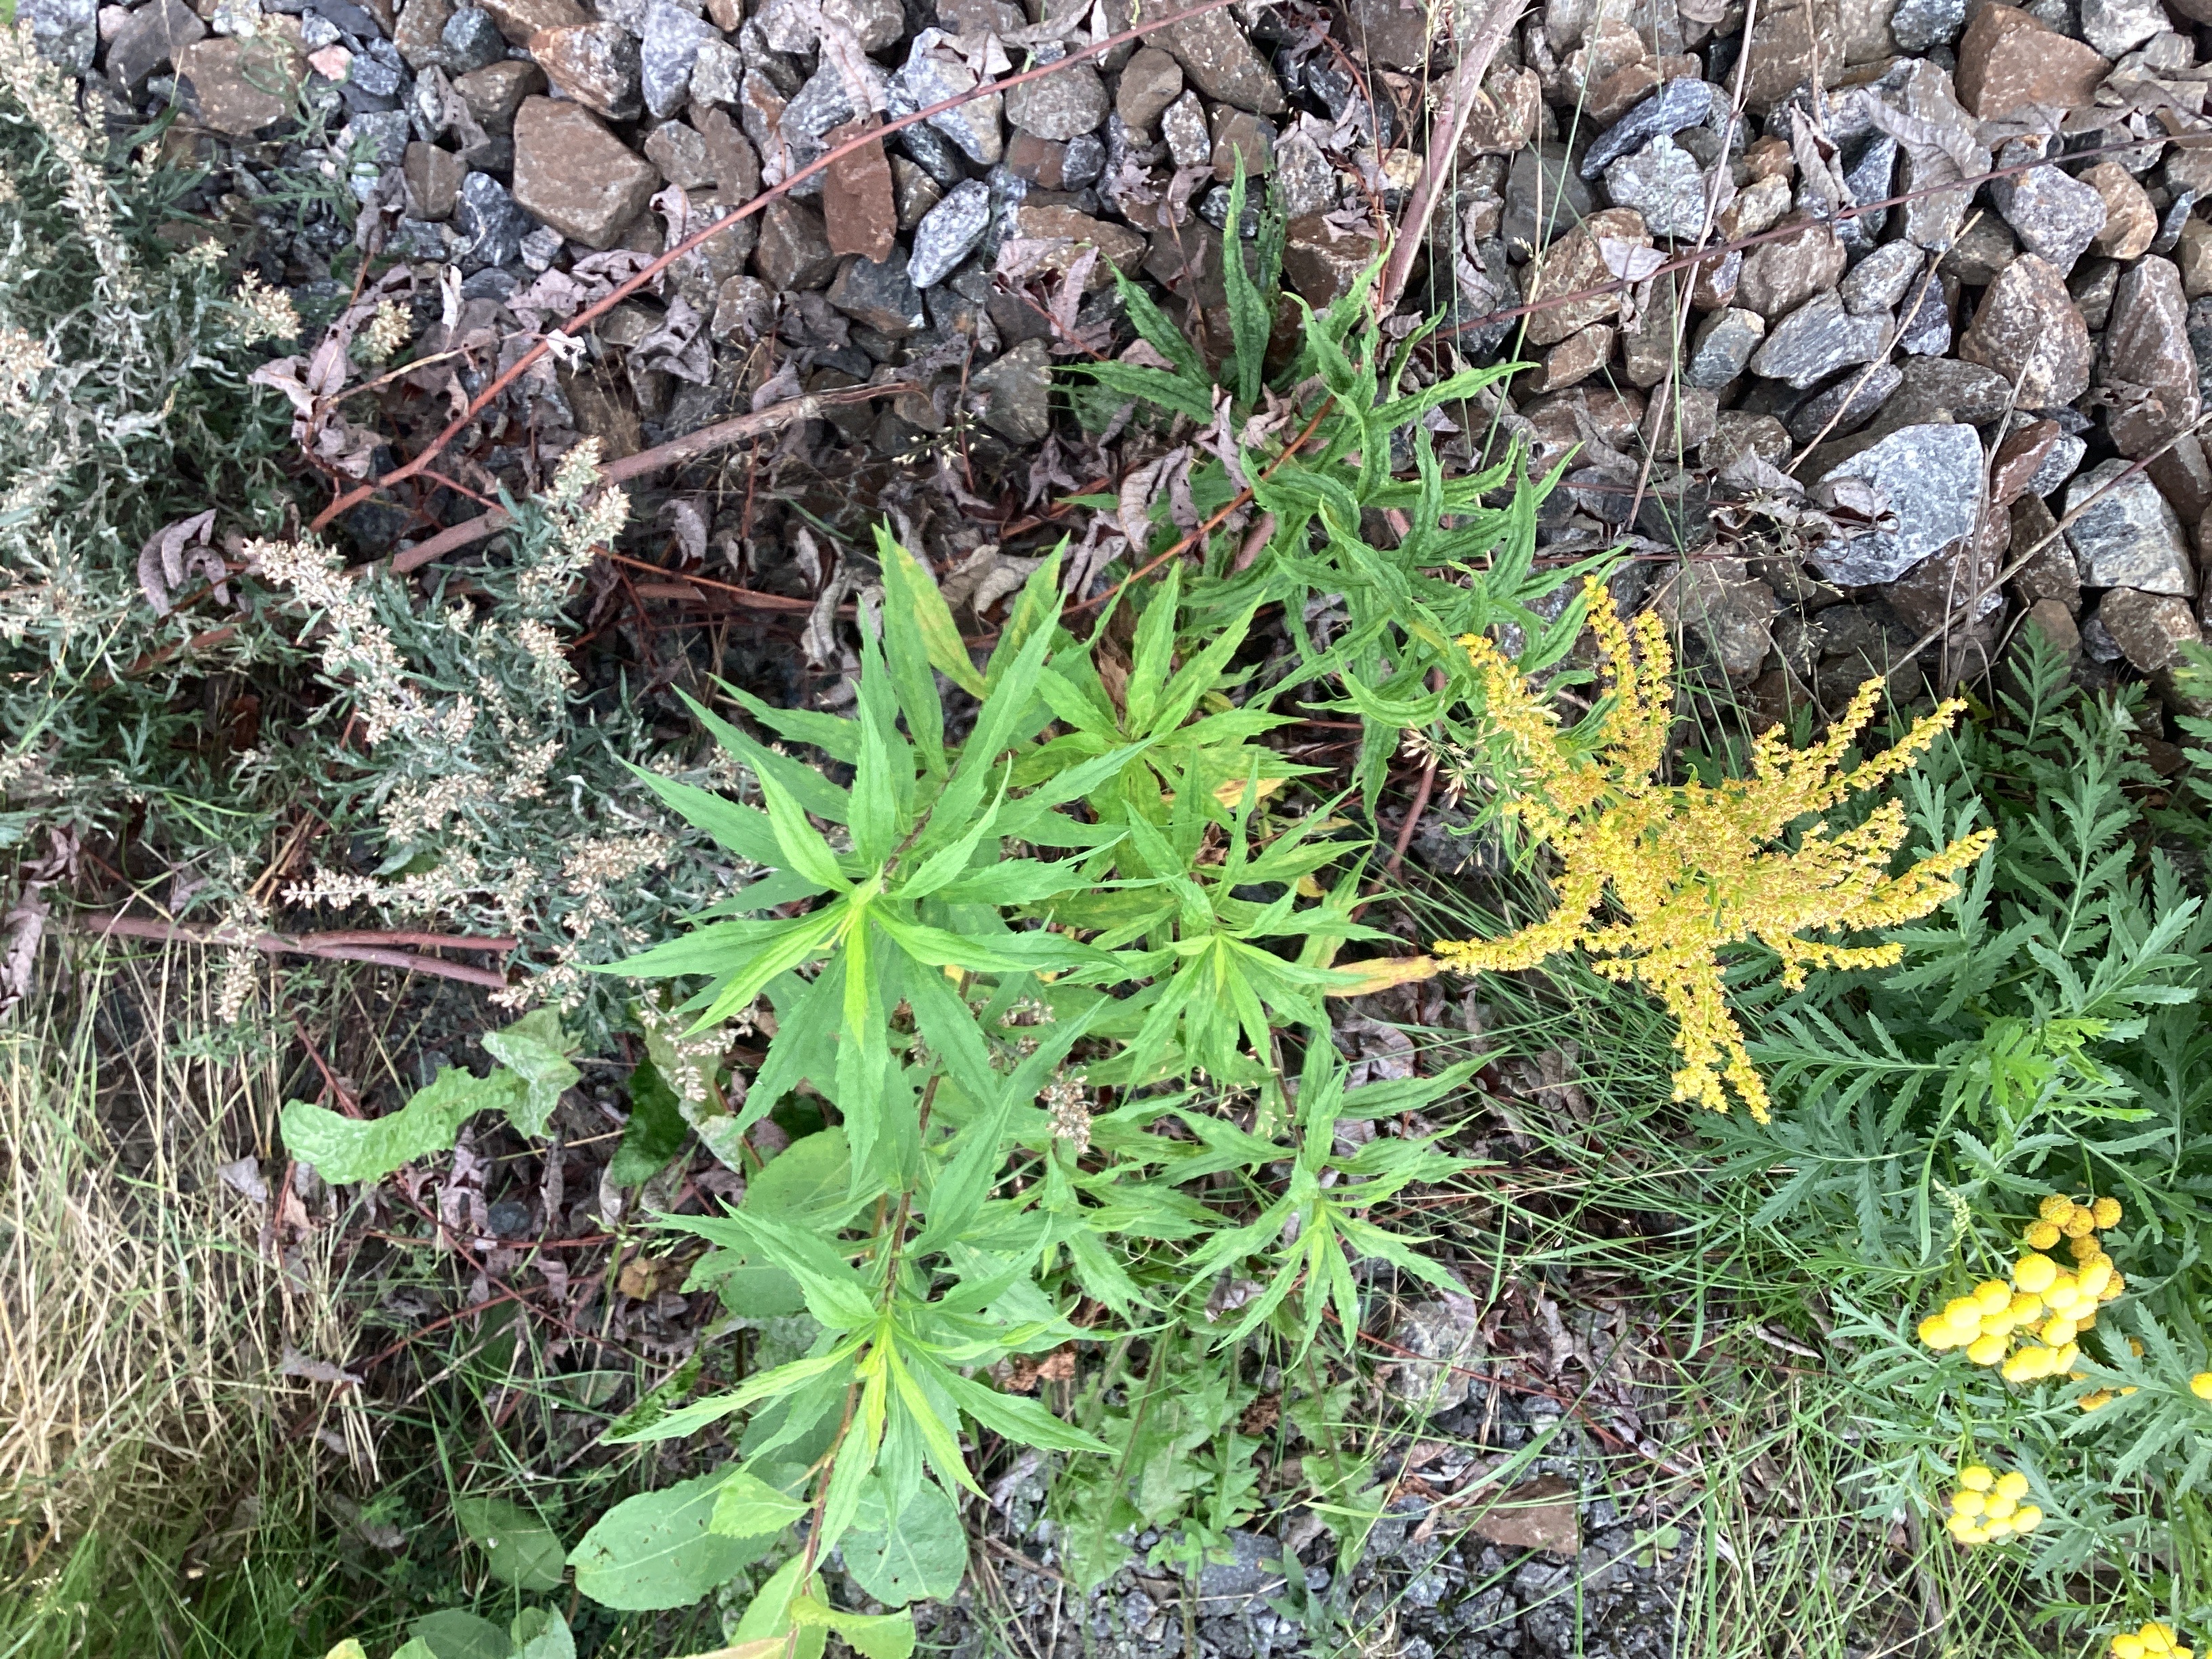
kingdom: Plantae
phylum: Tracheophyta
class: Magnoliopsida
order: Asterales
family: Asteraceae
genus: Solidago
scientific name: Solidago canadensis
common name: kanadagullris
